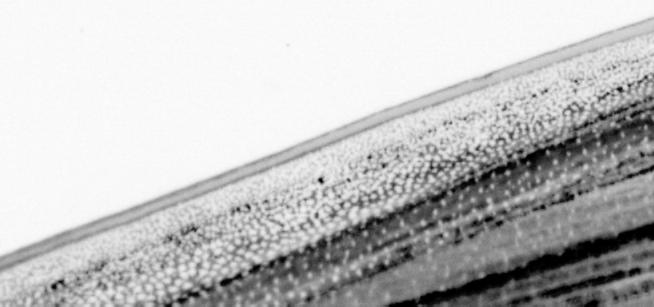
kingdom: Animalia
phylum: Chordata
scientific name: Chordata
